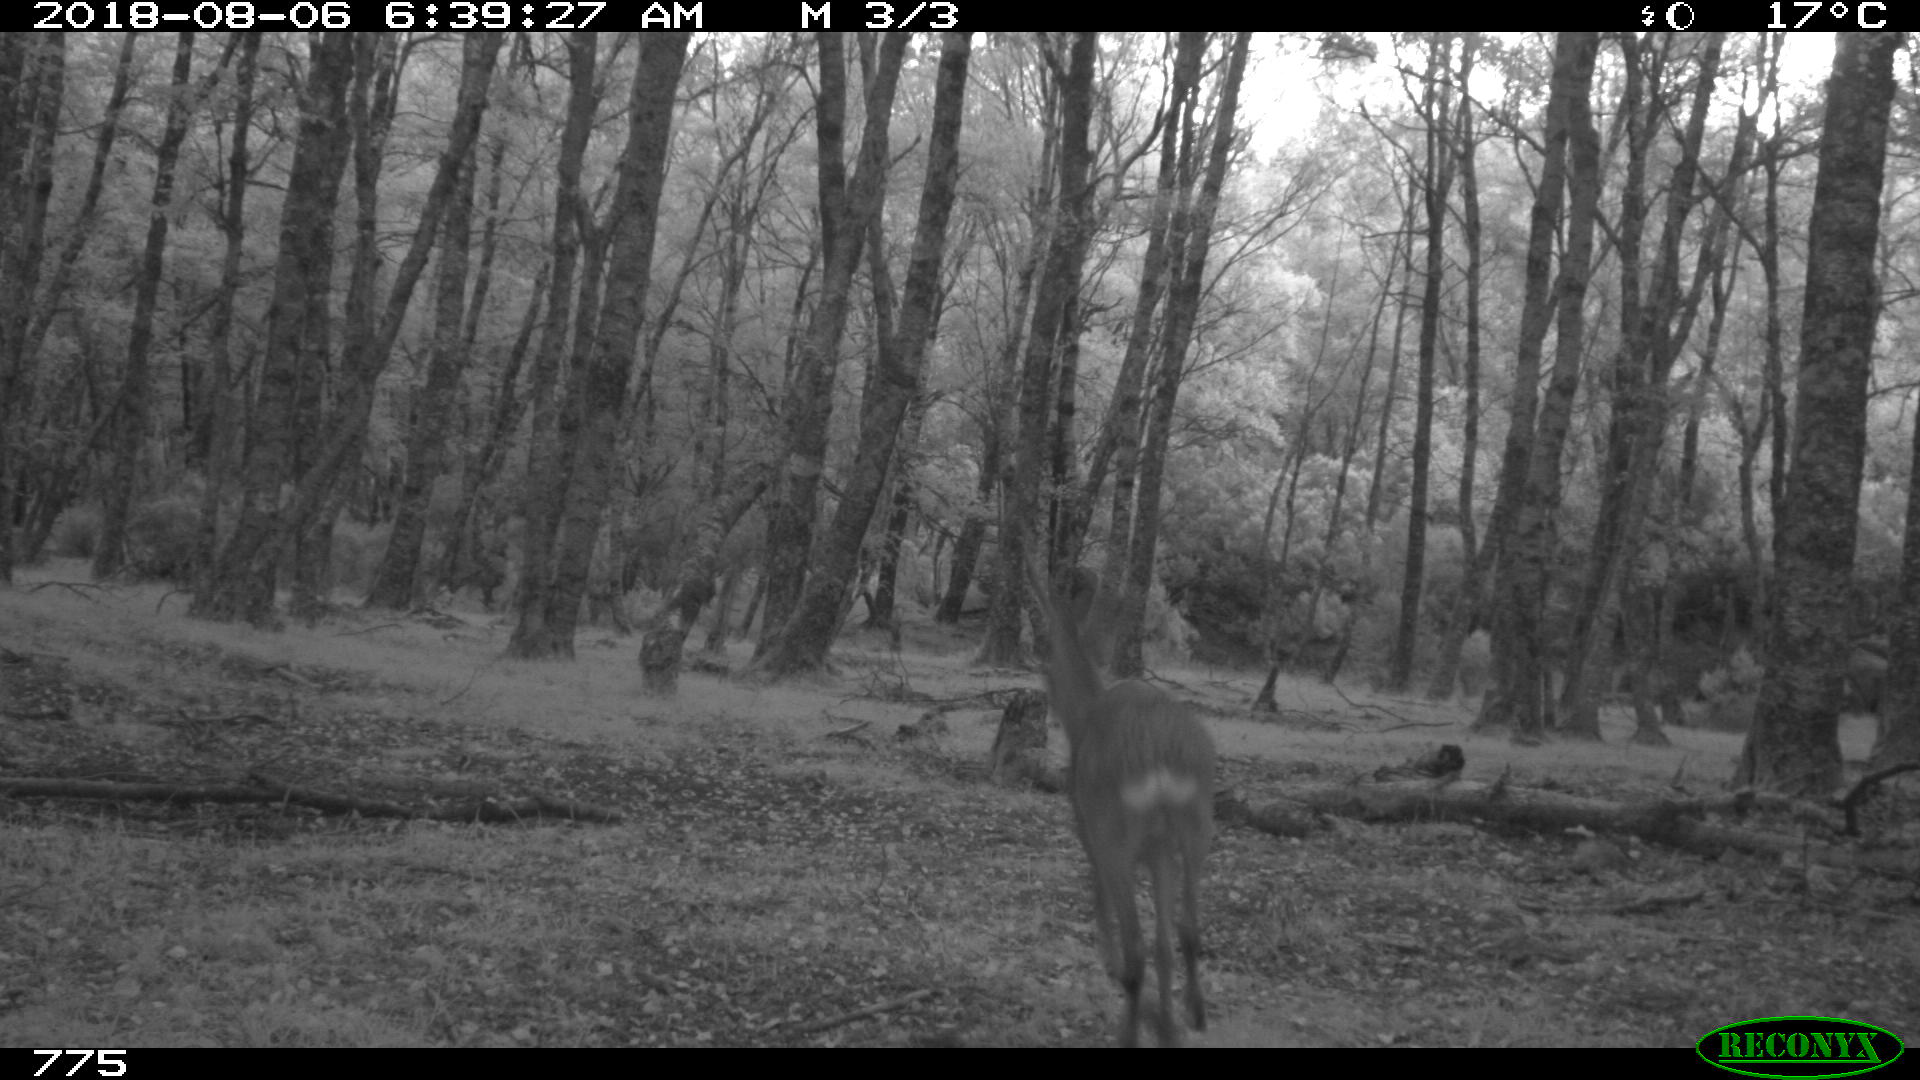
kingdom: Animalia
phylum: Chordata
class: Mammalia
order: Artiodactyla
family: Cervidae
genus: Capreolus
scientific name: Capreolus capreolus
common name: Western roe deer
